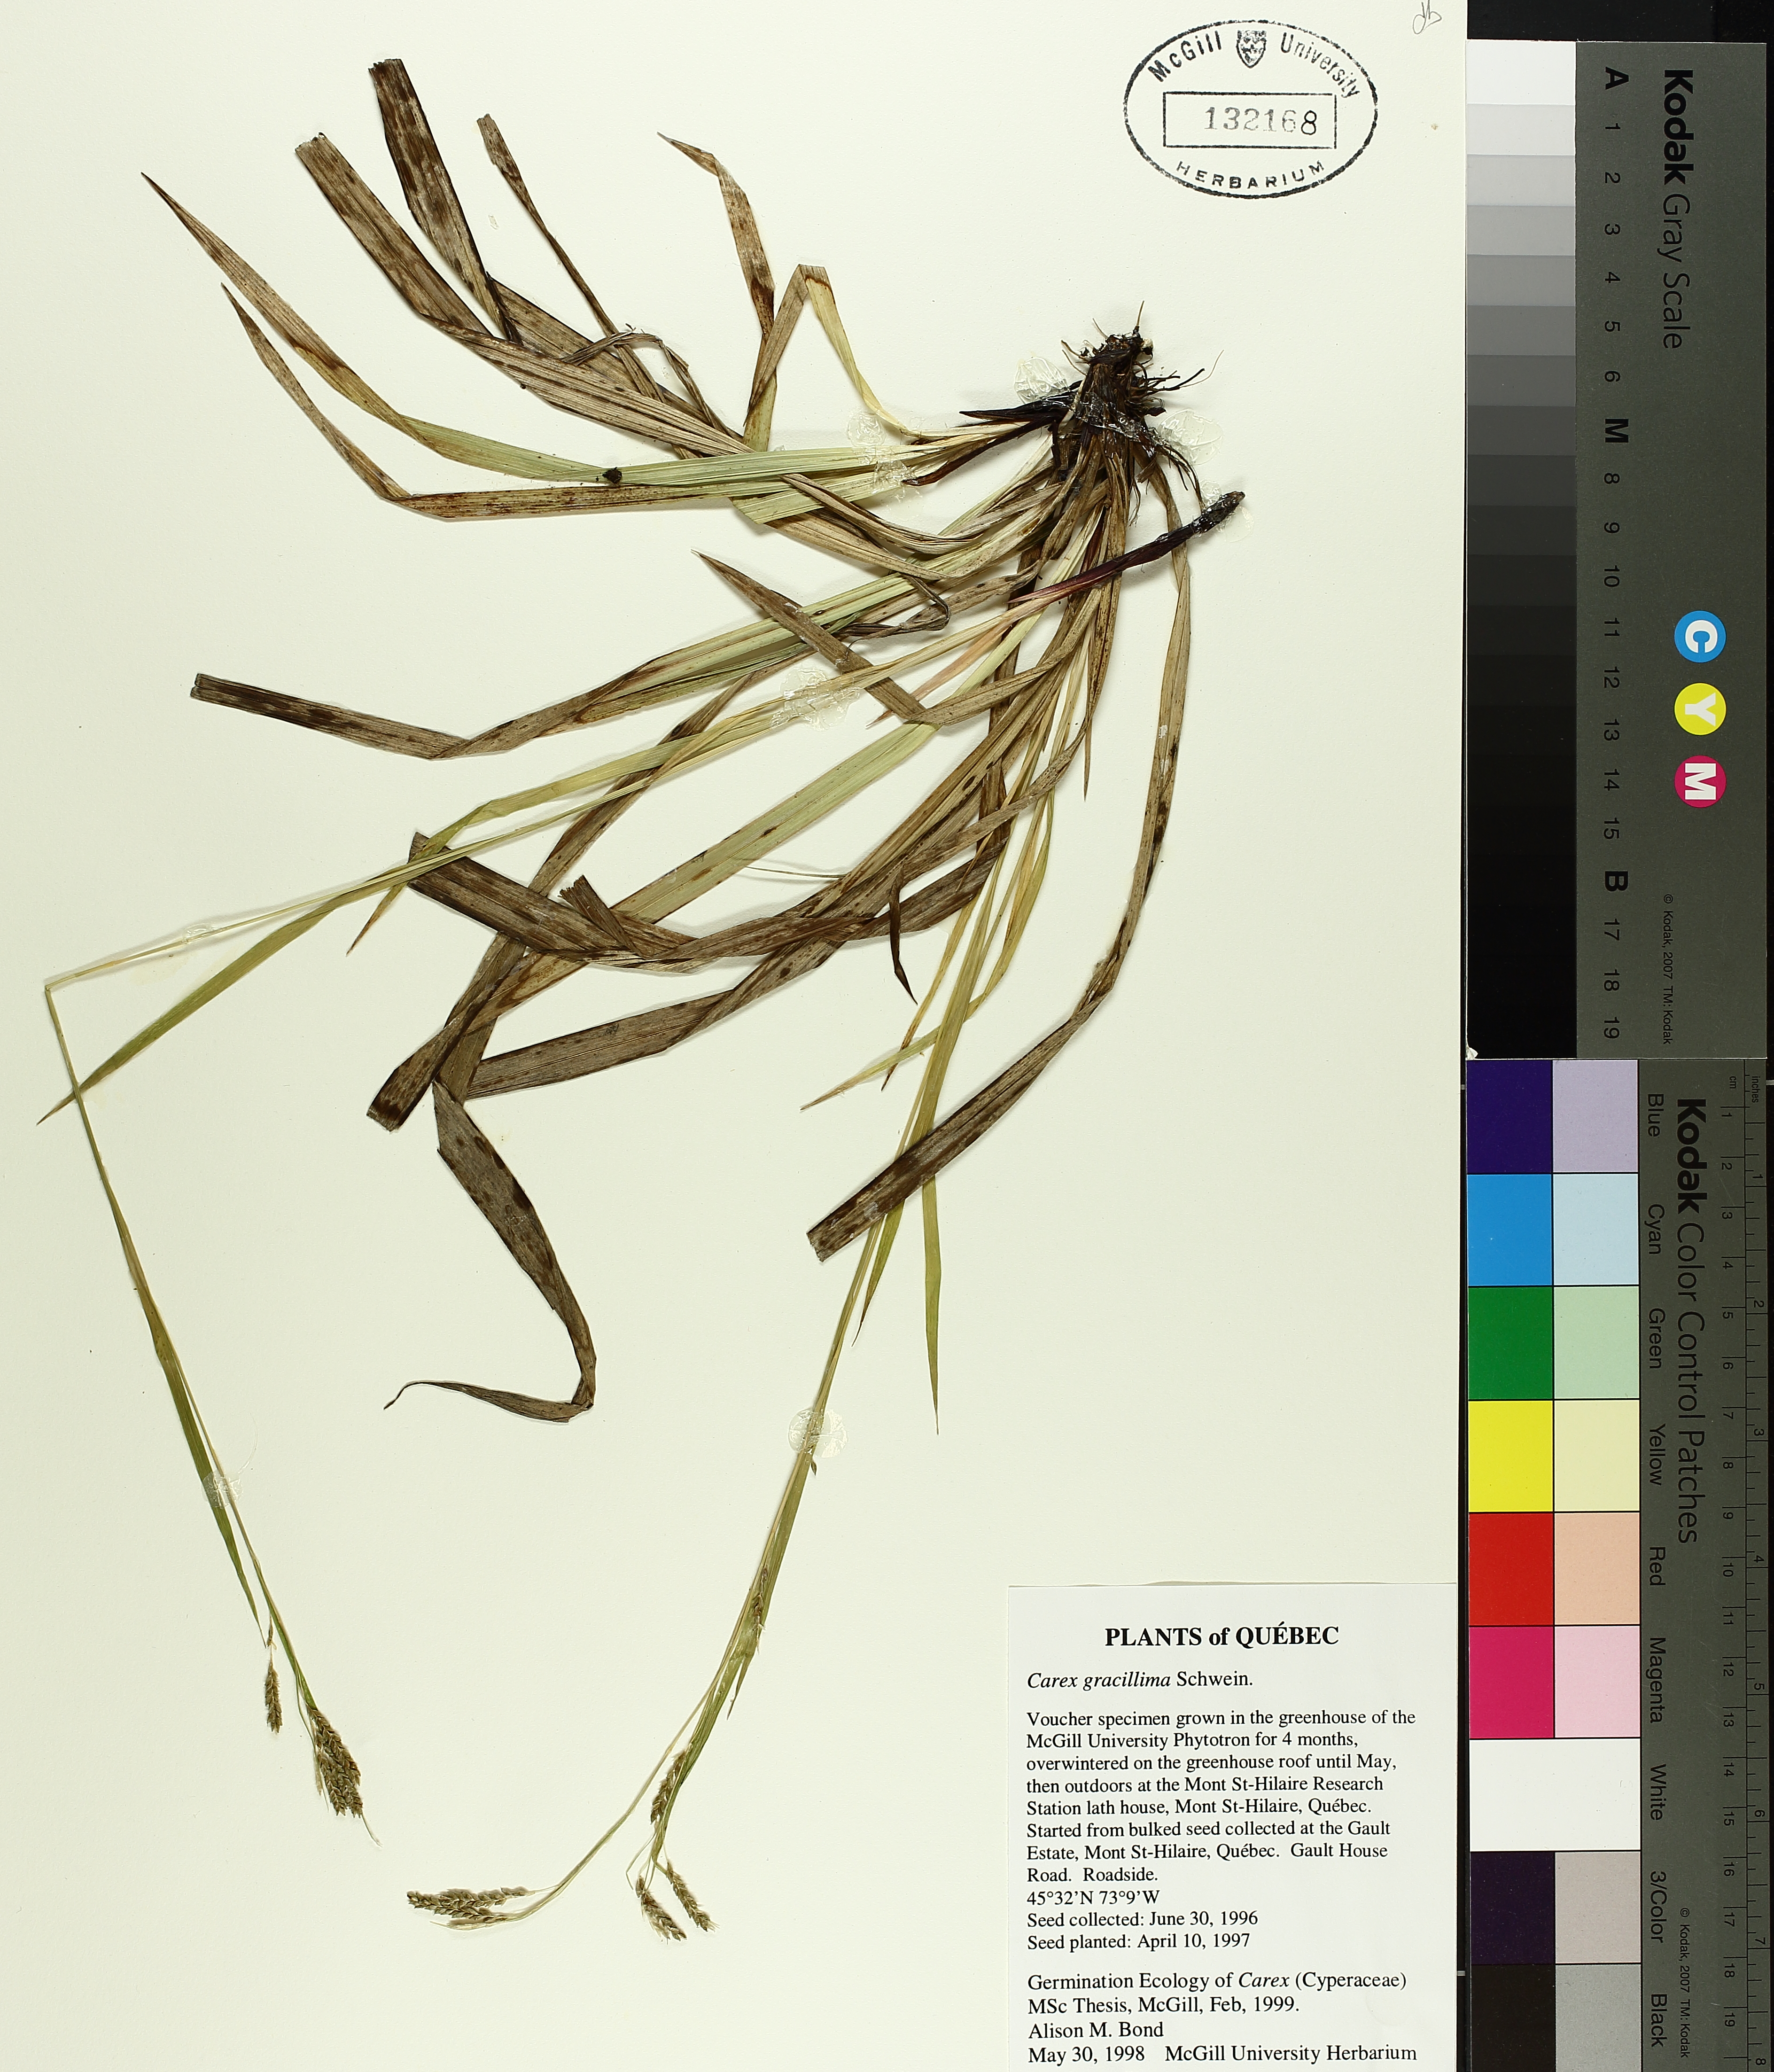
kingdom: Plantae
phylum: Tracheophyta
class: Liliopsida
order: Poales
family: Cyperaceae
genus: Carex
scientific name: Carex gracillima
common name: Graceful sedge
